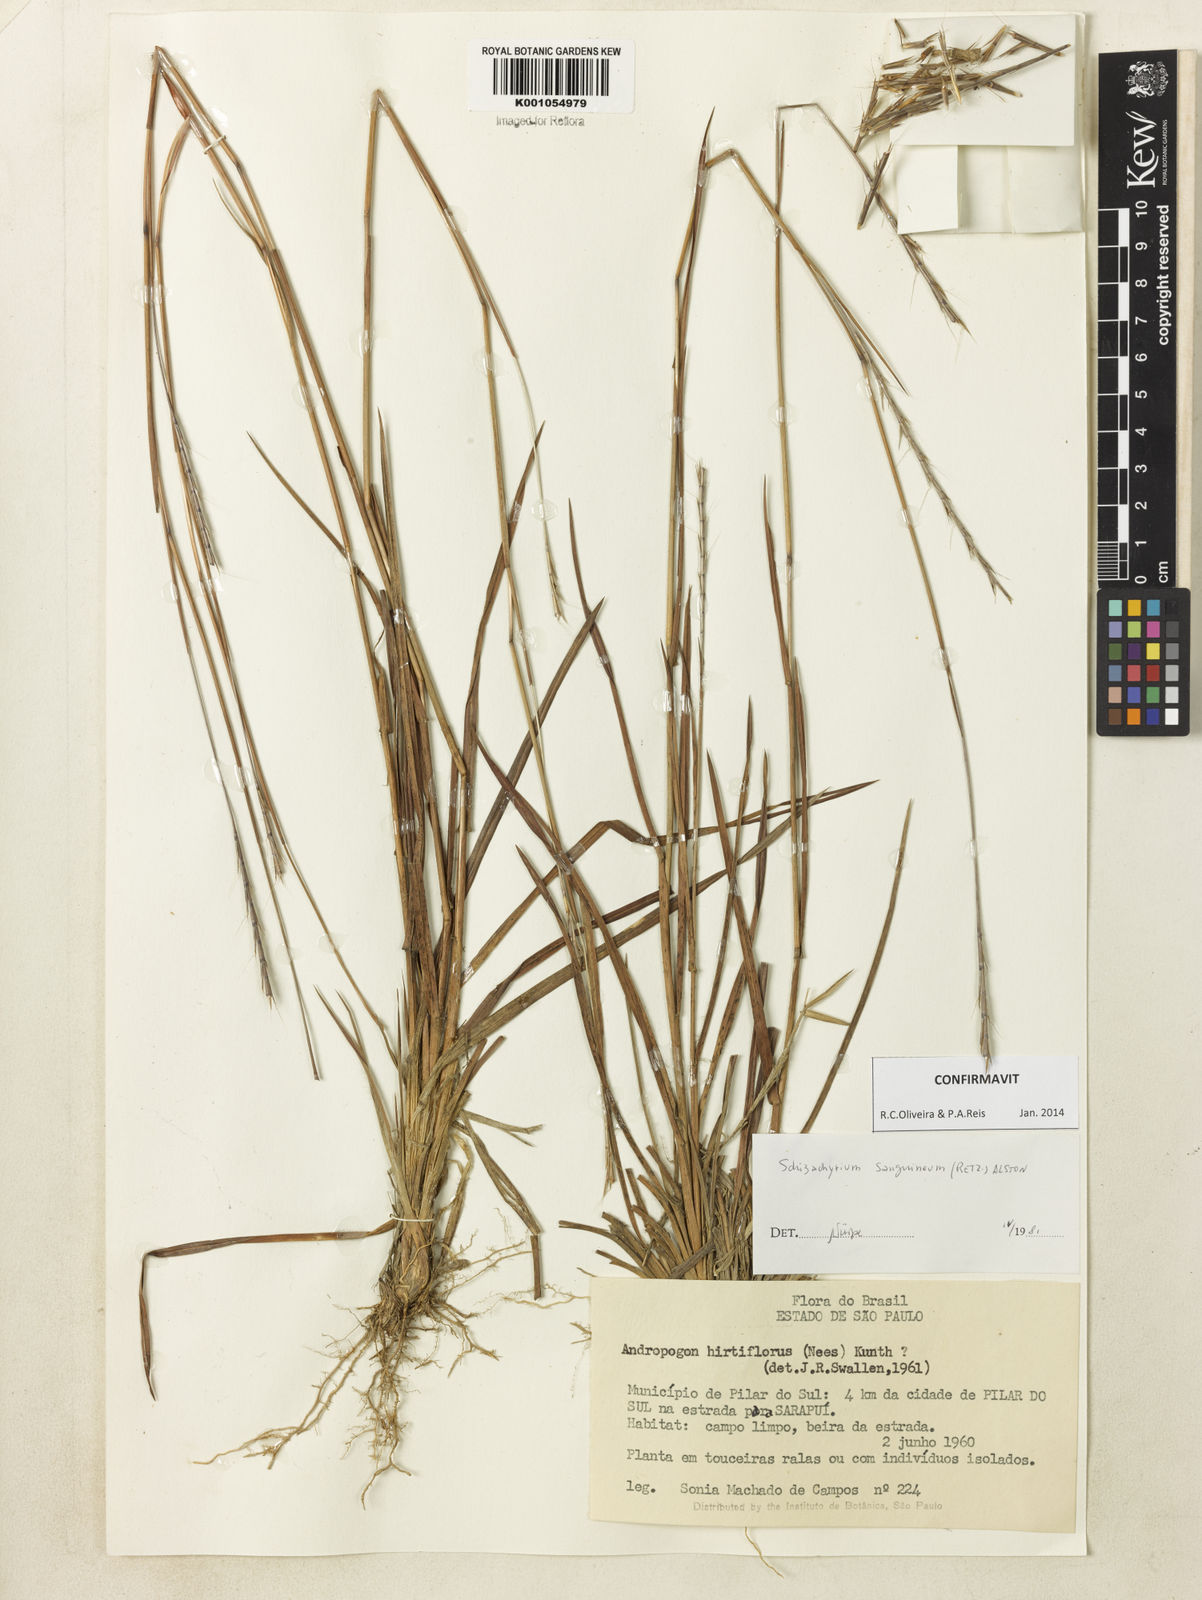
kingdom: Plantae
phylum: Tracheophyta
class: Liliopsida
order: Poales
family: Poaceae
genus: Schizachyrium
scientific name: Schizachyrium sanguineum
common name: Crimson bluestem
